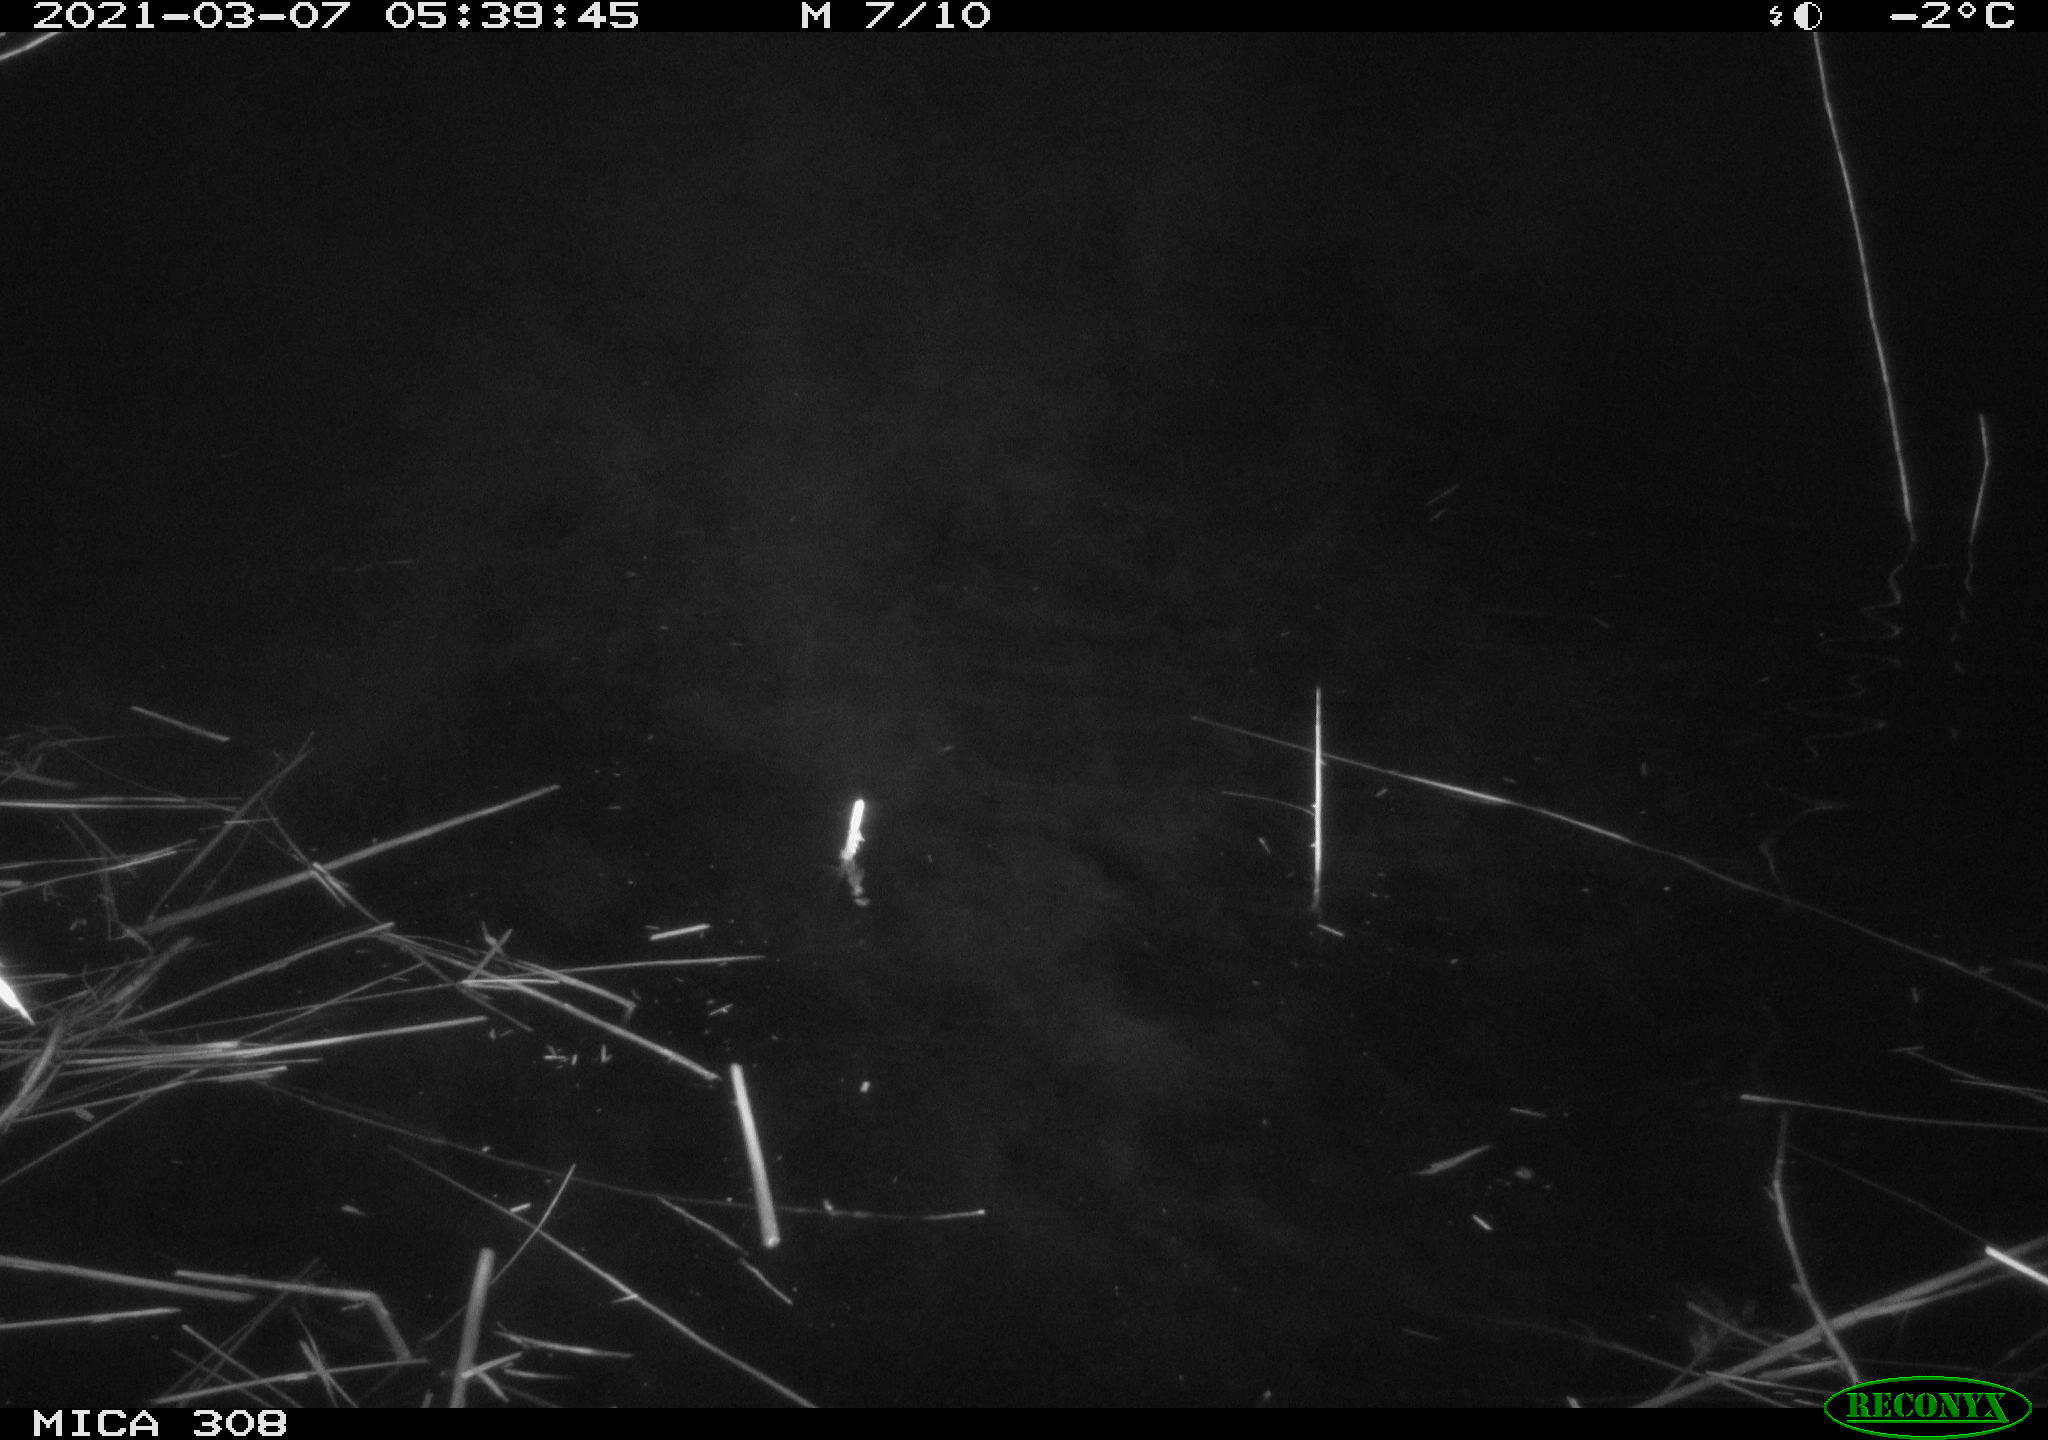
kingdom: Animalia
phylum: Chordata
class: Aves
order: Anseriformes
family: Anatidae
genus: Anas
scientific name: Anas platyrhynchos
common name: Mallard
